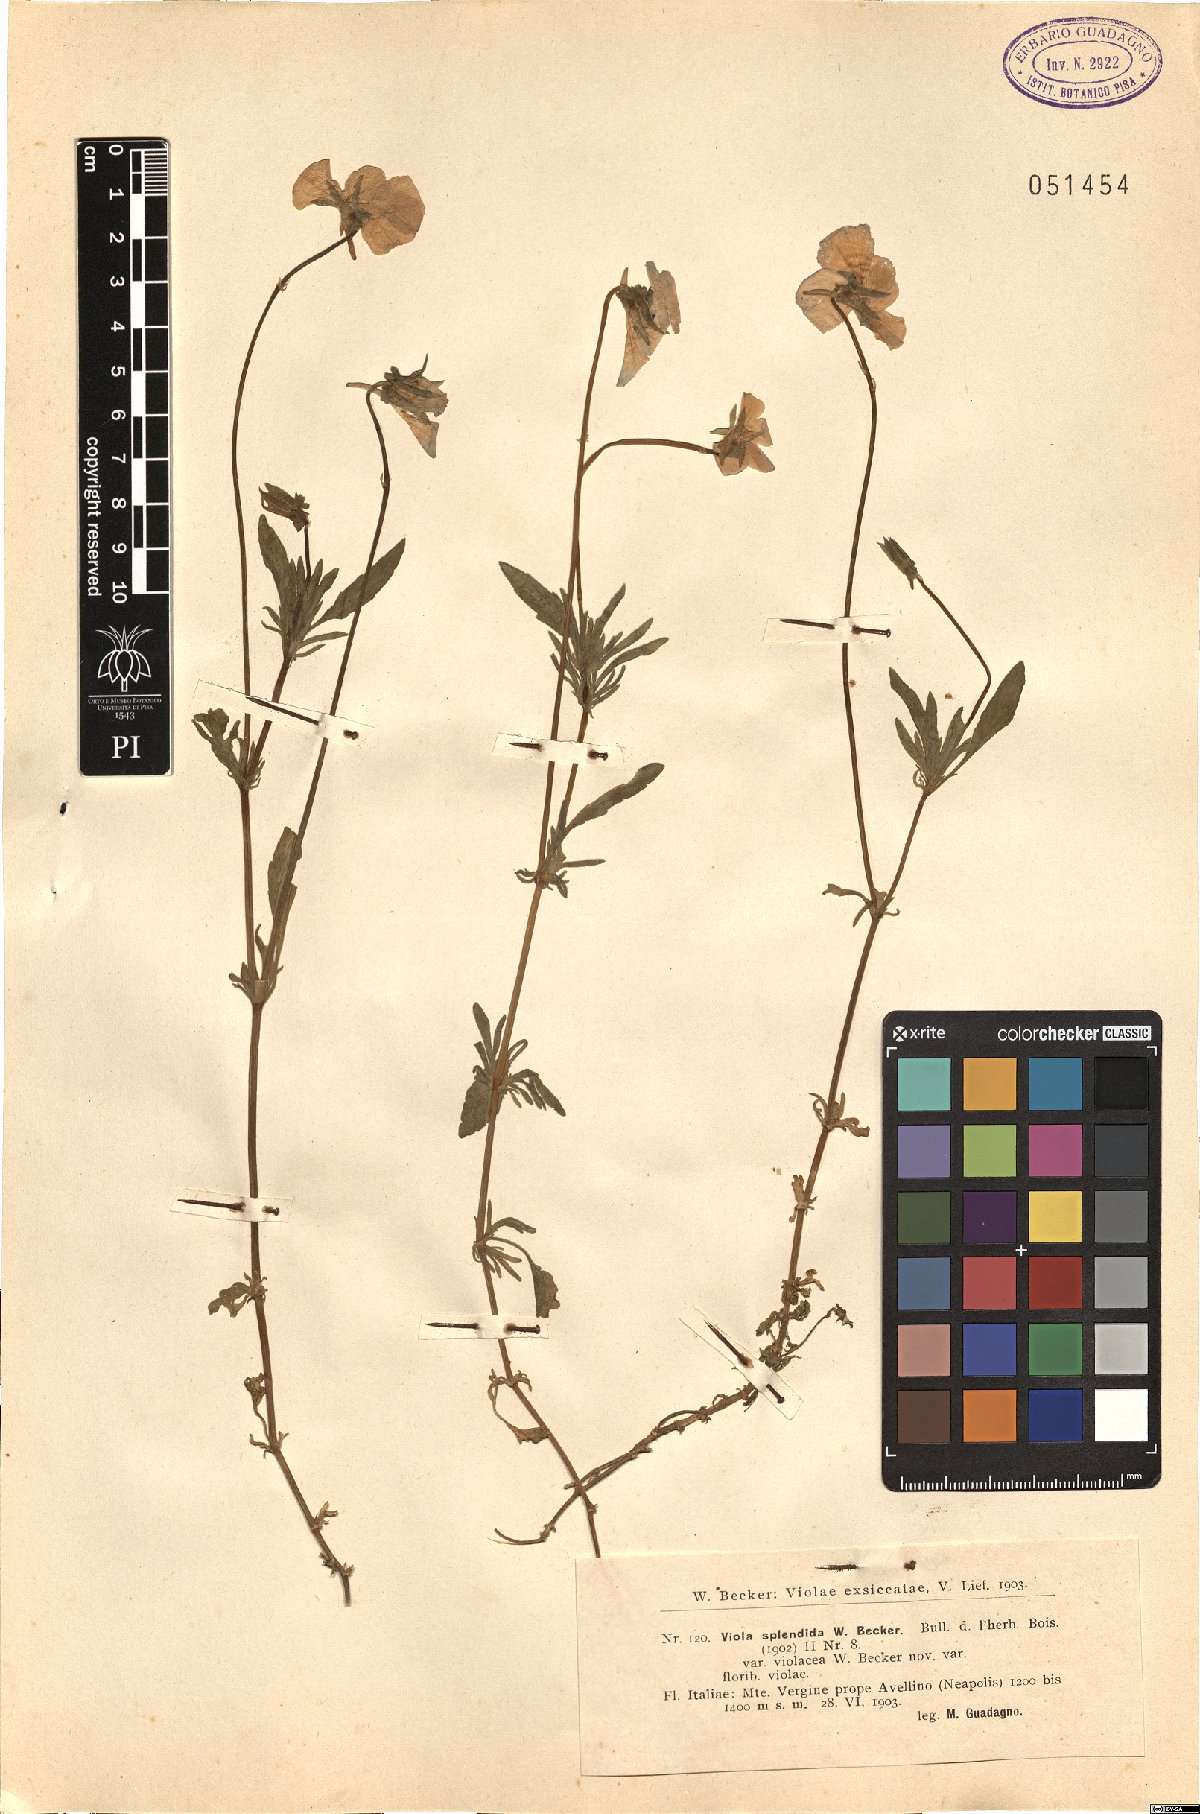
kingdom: Plantae
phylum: Tracheophyta
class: Magnoliopsida
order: Malpighiales
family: Violaceae
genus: Viola
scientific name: Viola aethnensis
